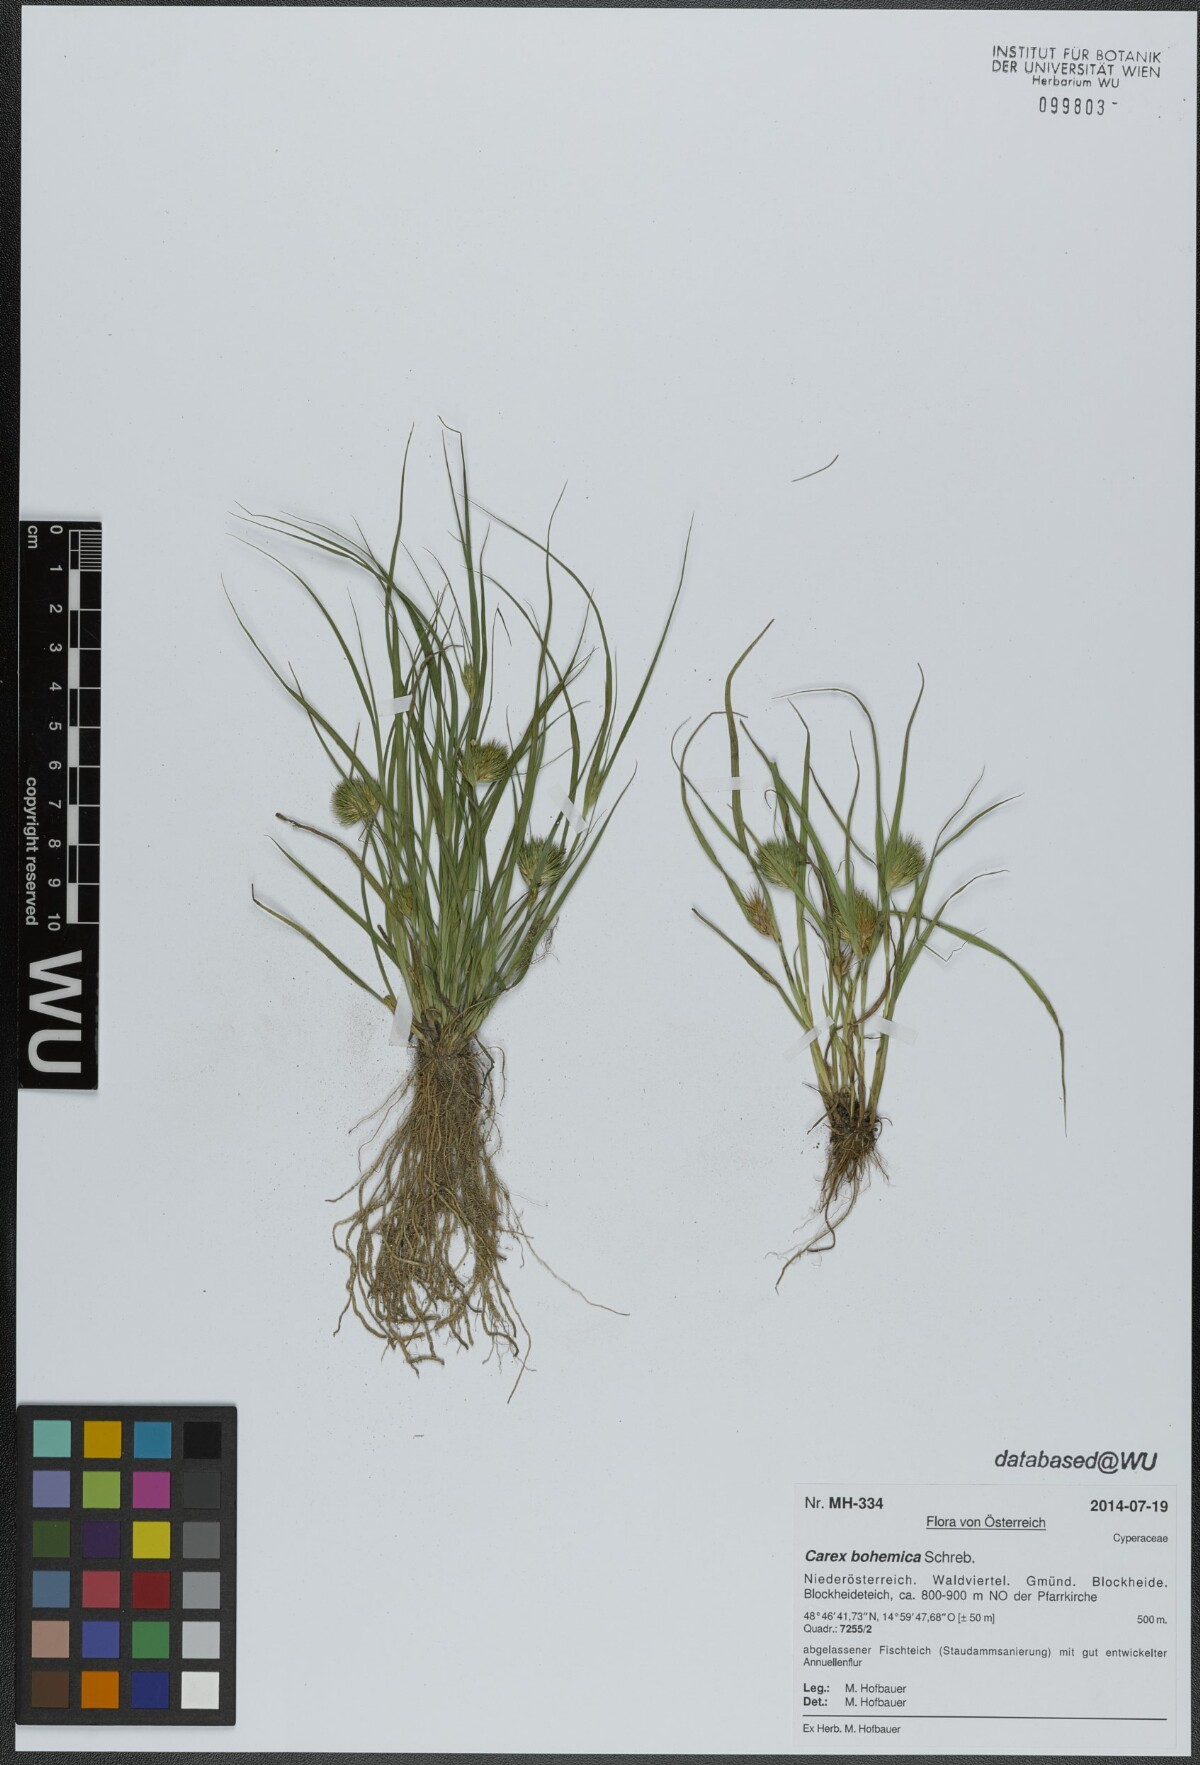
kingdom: Plantae
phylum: Tracheophyta
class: Liliopsida
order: Poales
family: Cyperaceae
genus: Carex
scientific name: Carex bohemica
